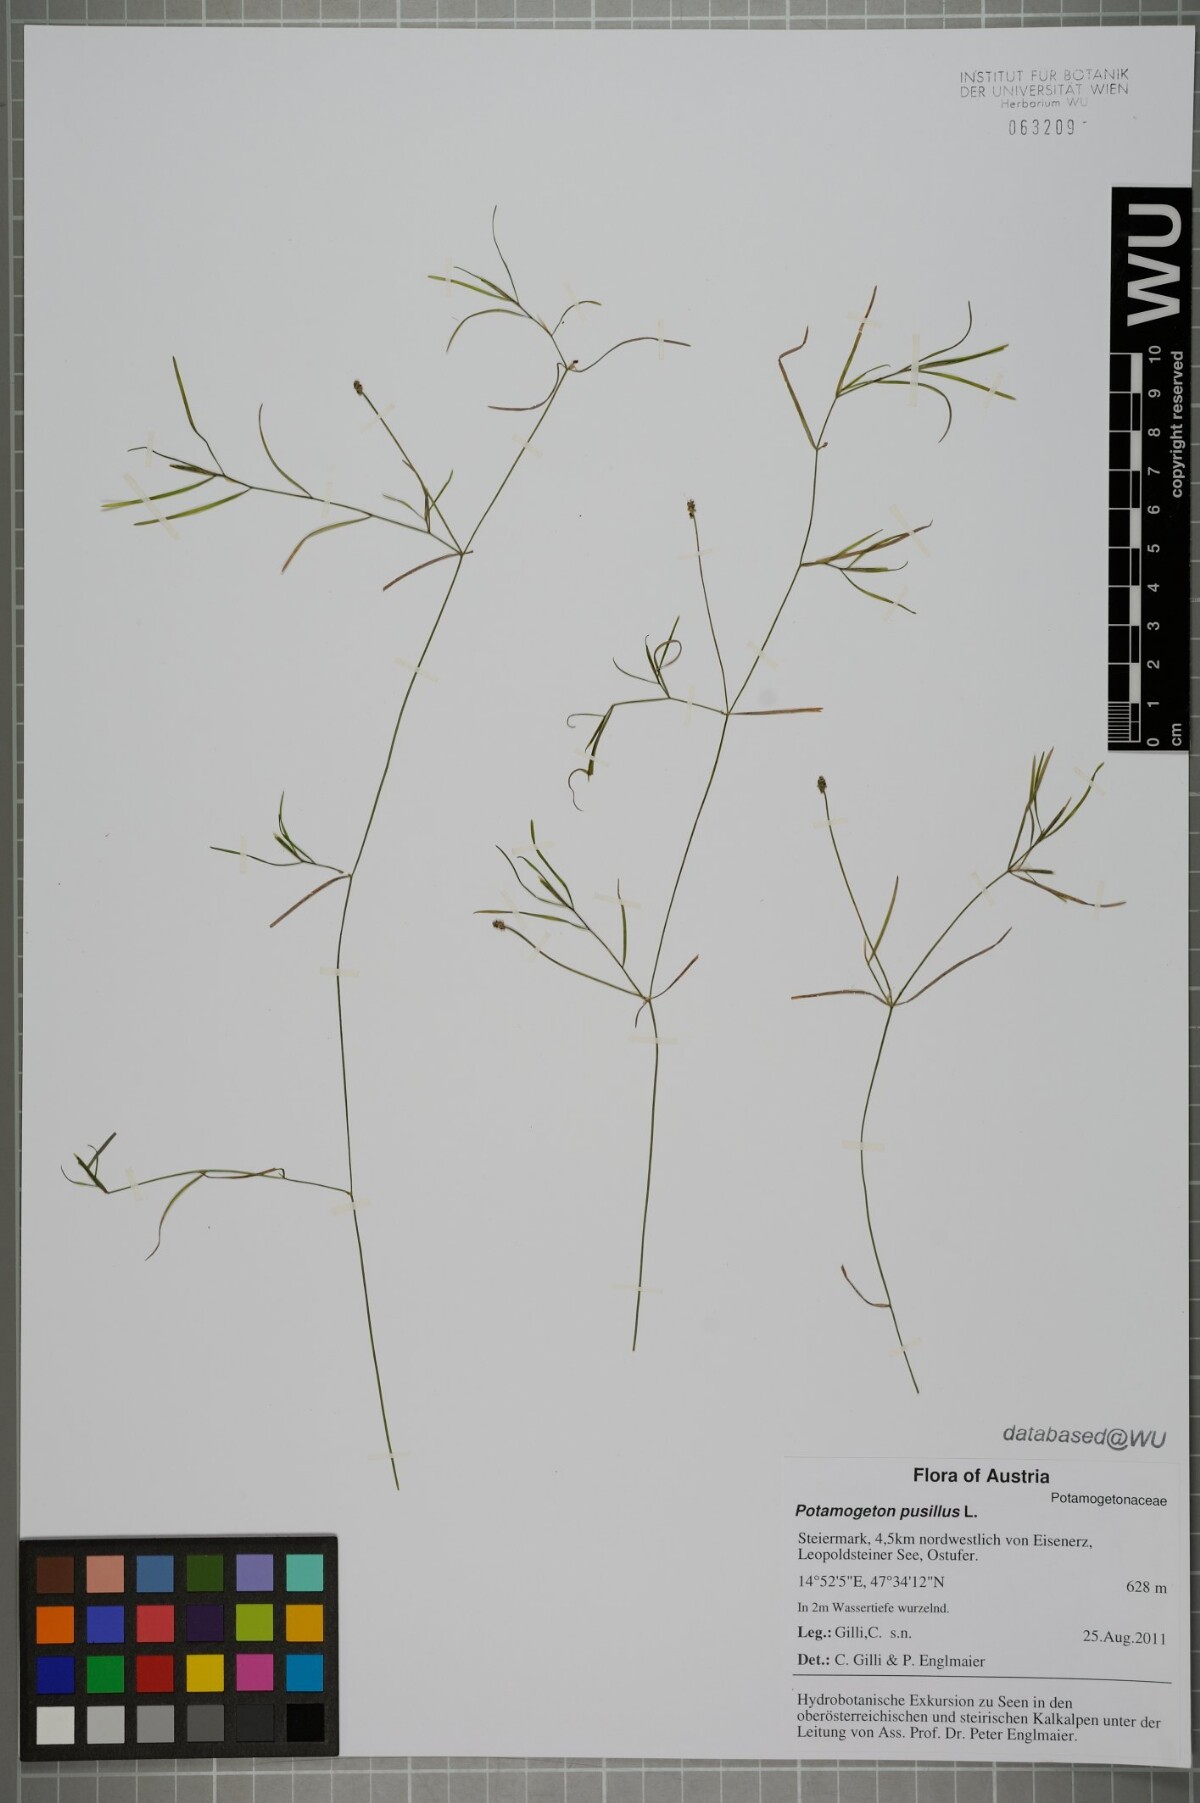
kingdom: Plantae
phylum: Tracheophyta
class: Liliopsida
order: Alismatales
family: Potamogetonaceae
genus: Potamogeton
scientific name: Potamogeton pusillus
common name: Lesser pondweed
